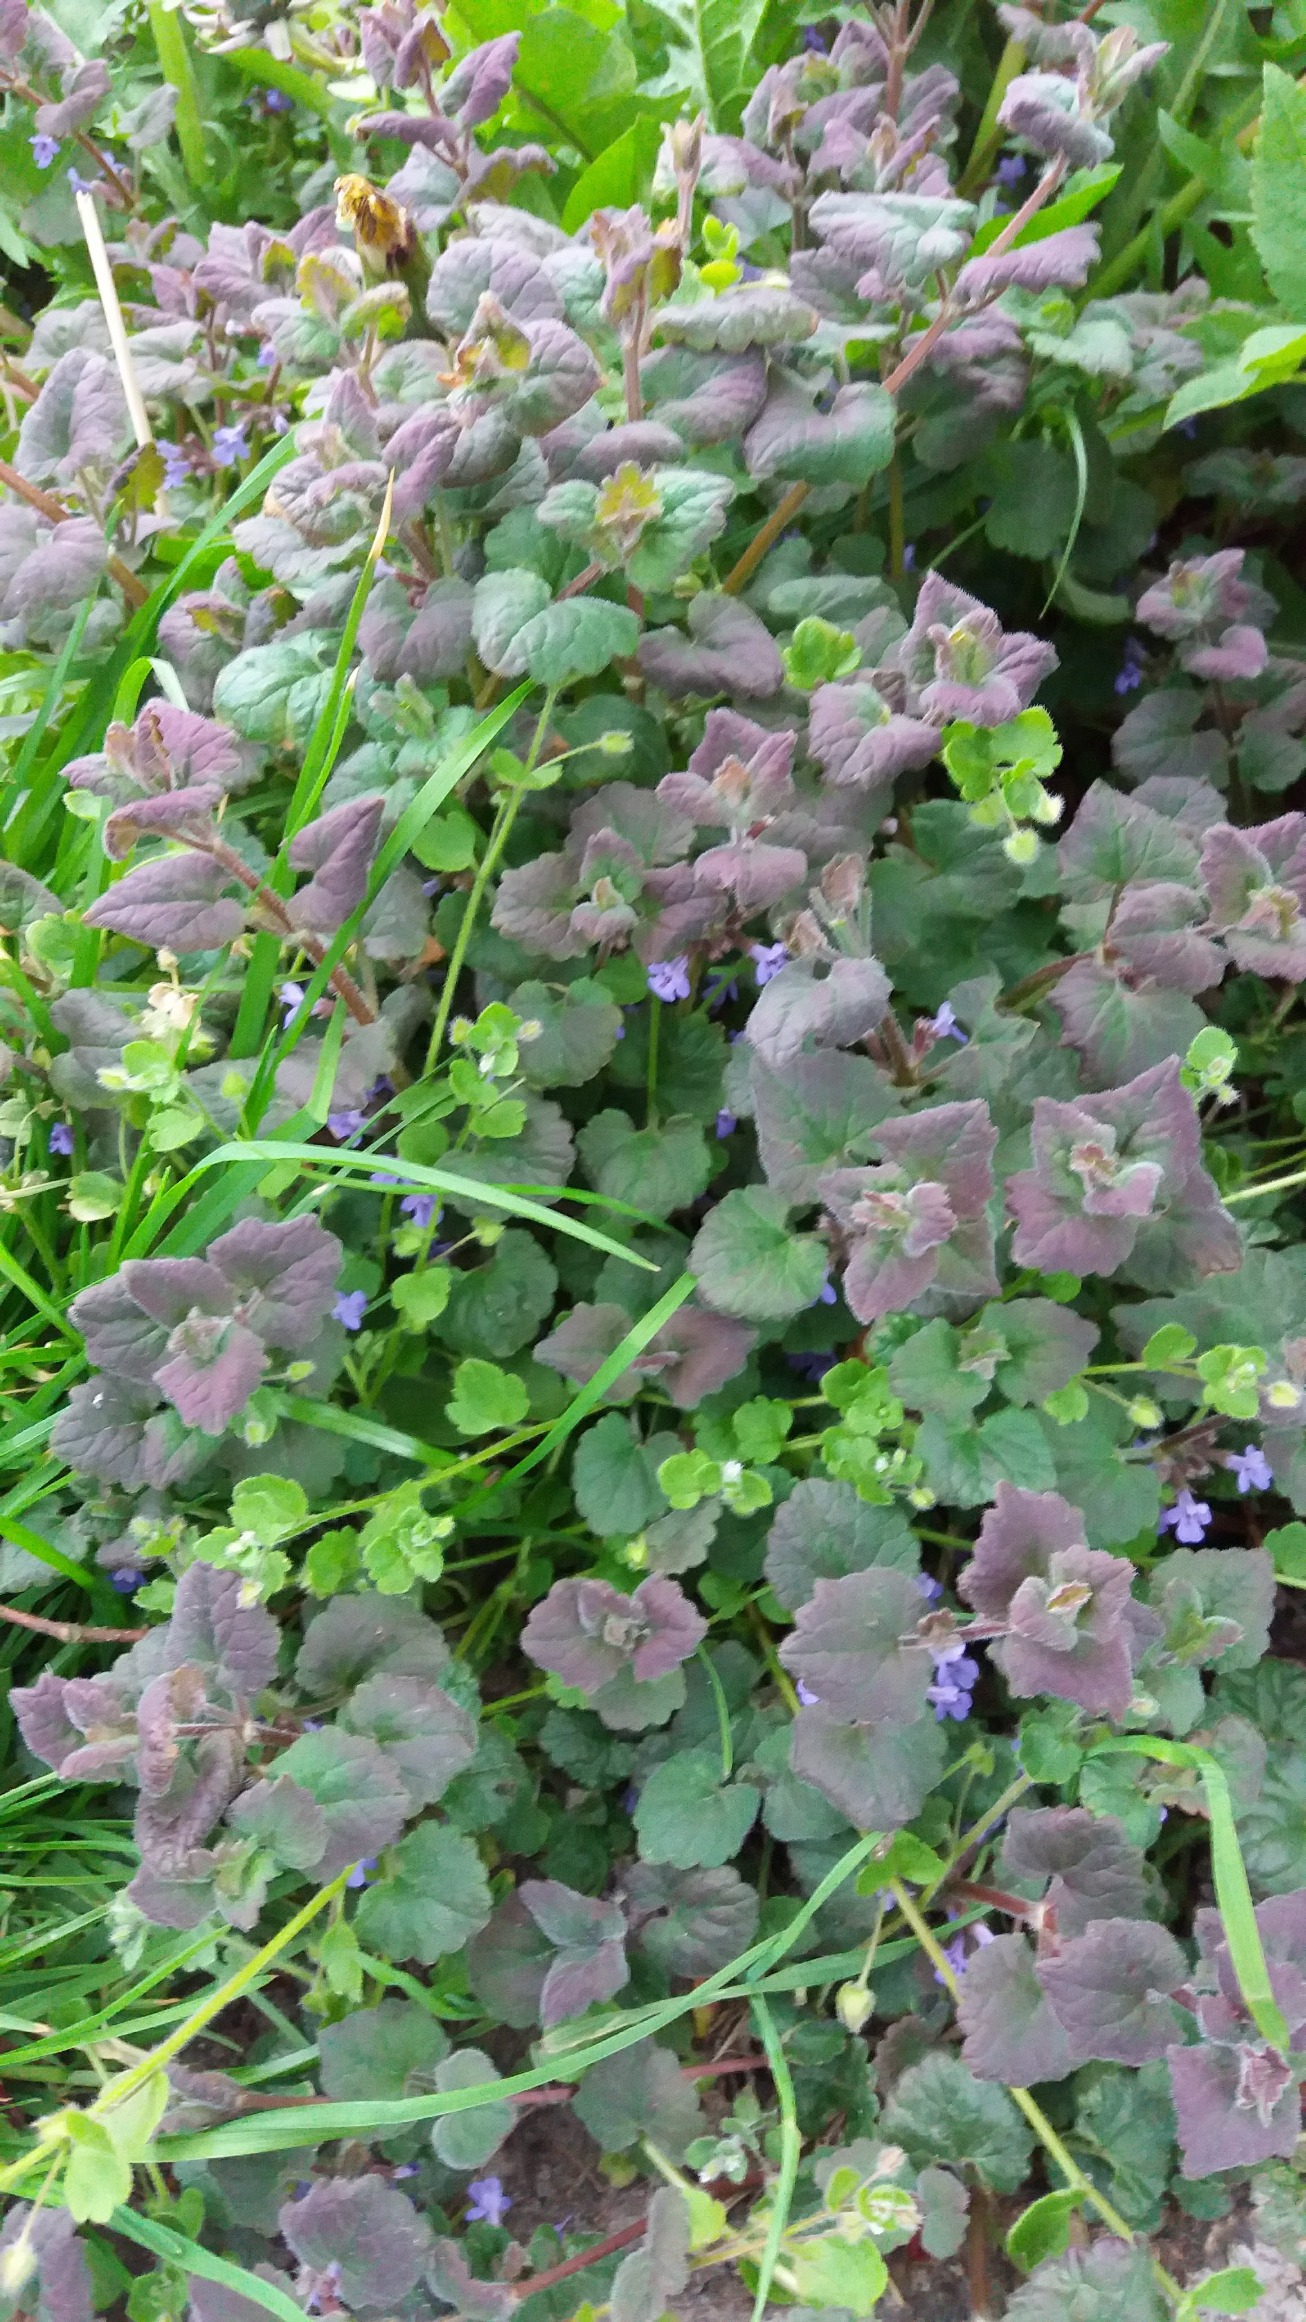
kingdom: Plantae
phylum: Tracheophyta
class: Magnoliopsida
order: Lamiales
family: Lamiaceae
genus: Glechoma
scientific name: Glechoma hederacea
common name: Korsknap
